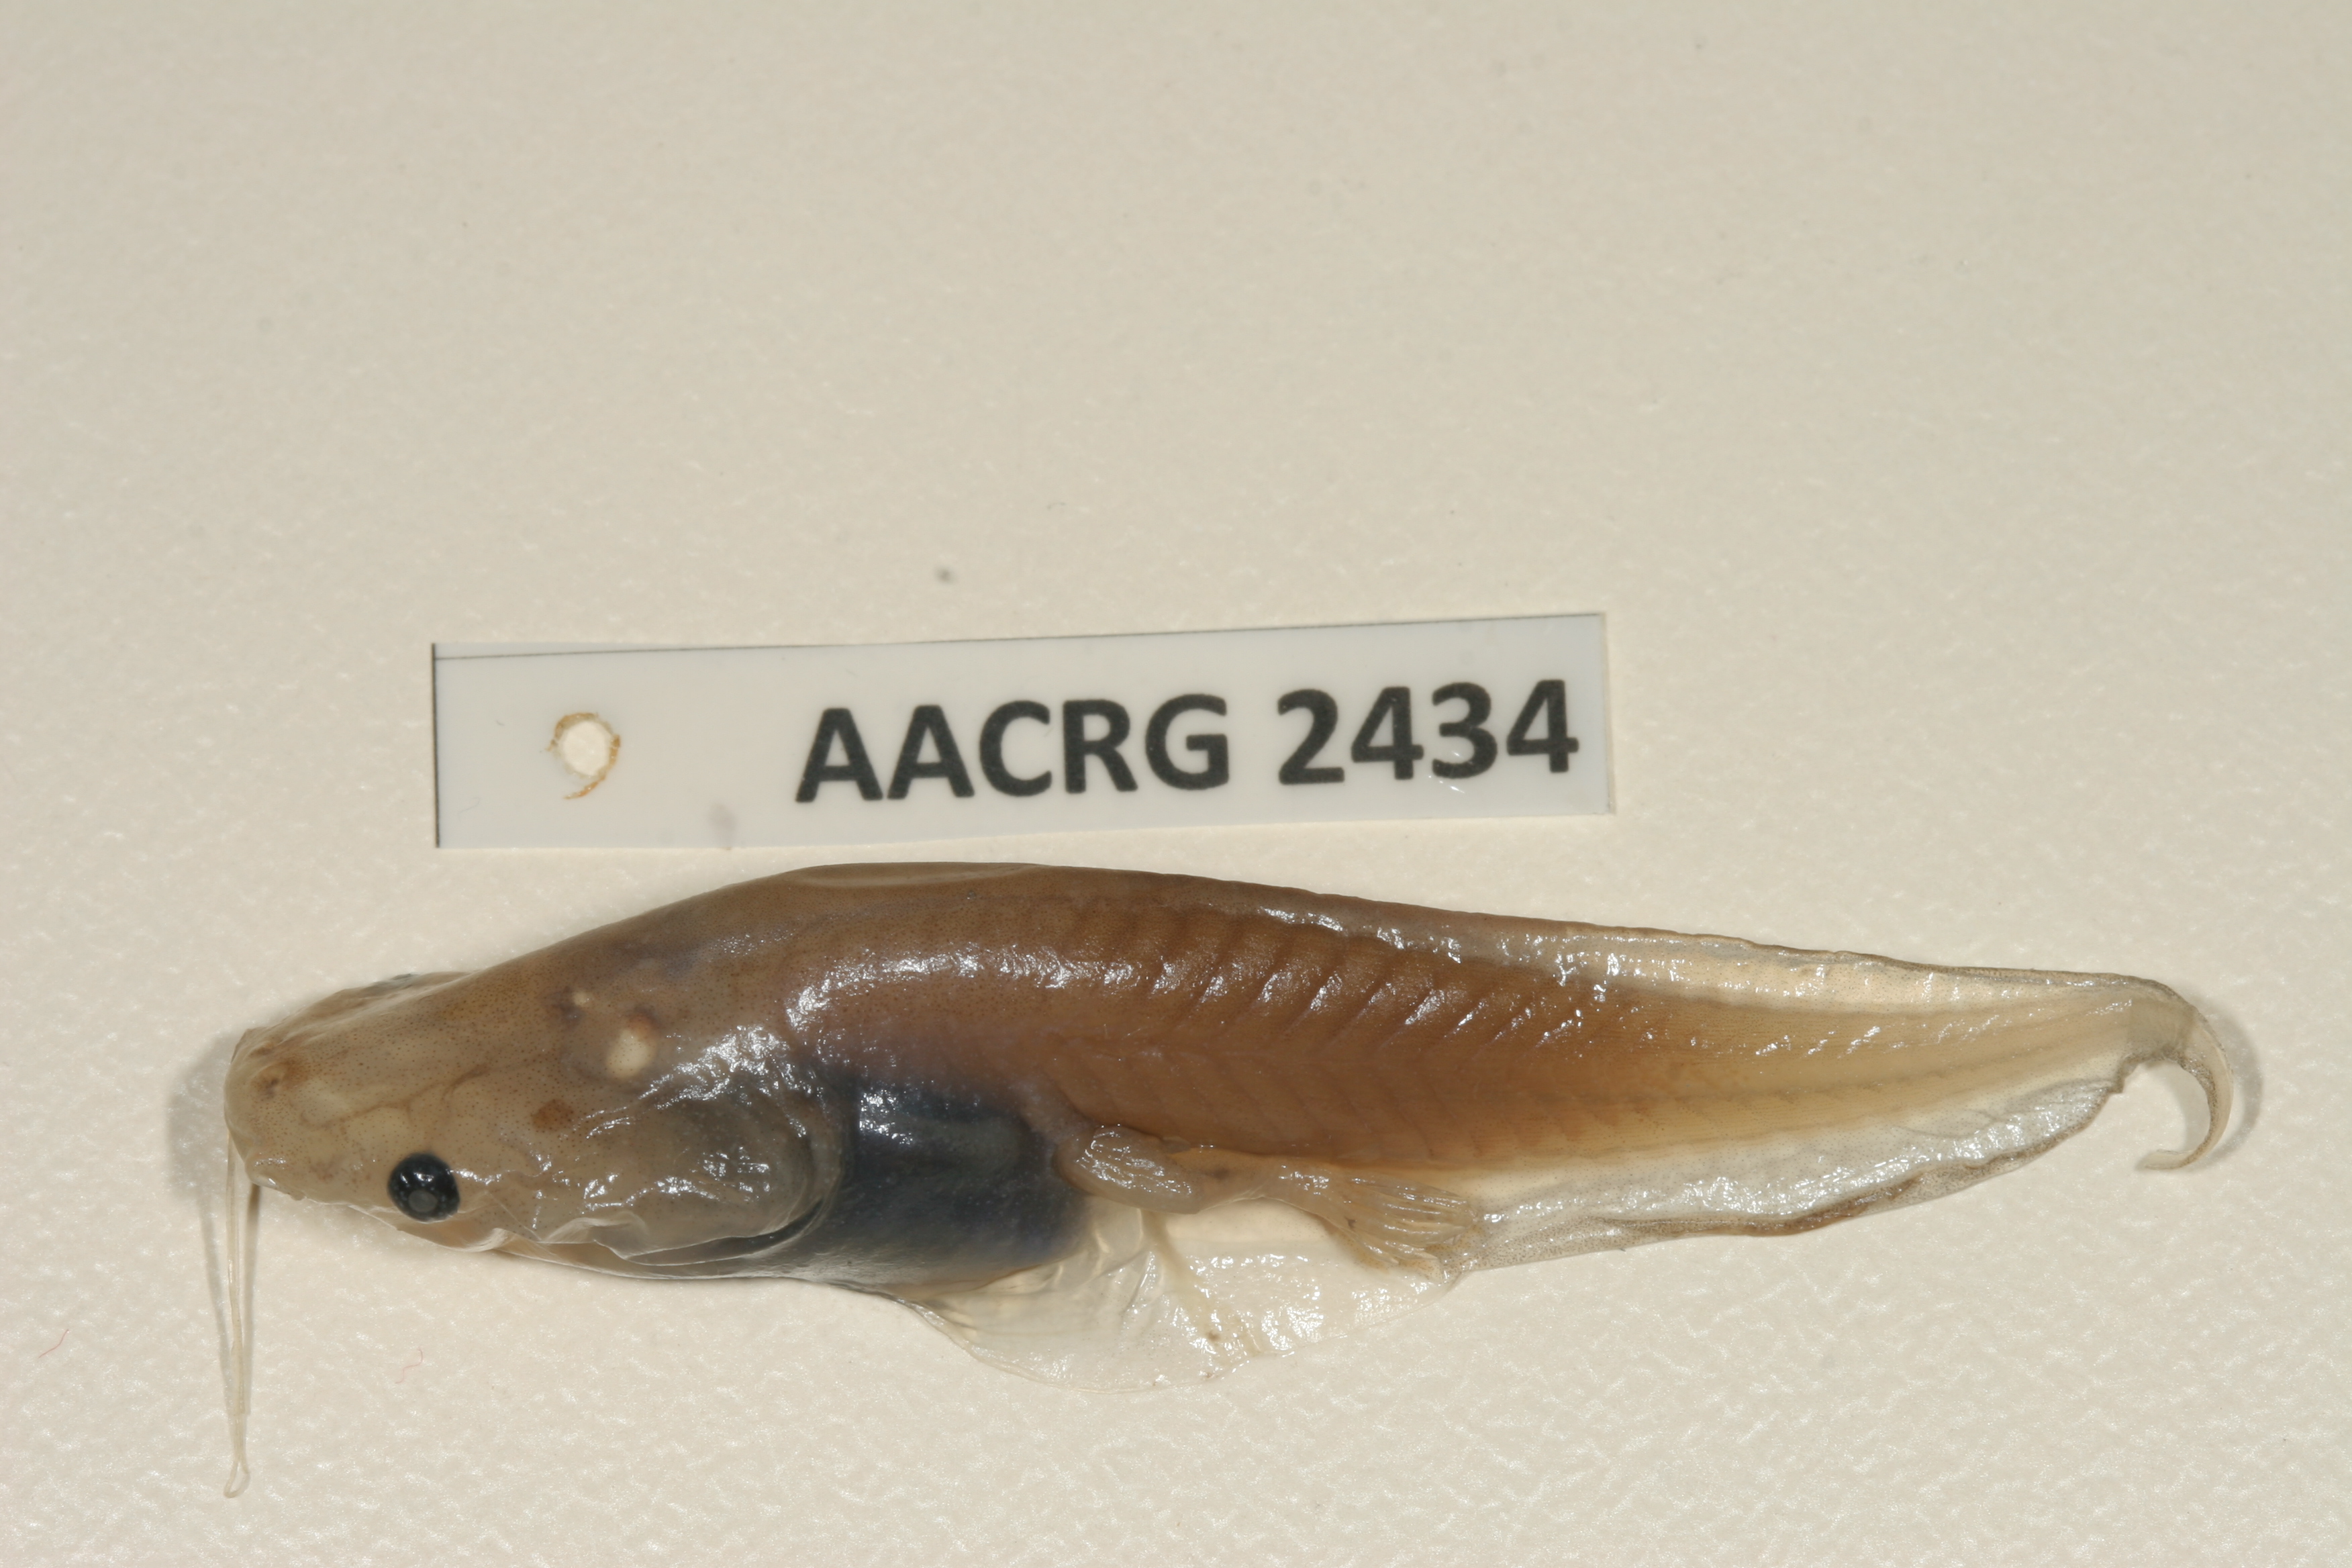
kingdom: Animalia
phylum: Chordata
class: Amphibia
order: Anura
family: Pipidae
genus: Xenopus
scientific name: Xenopus muelleri
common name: Muller's clawed frog
